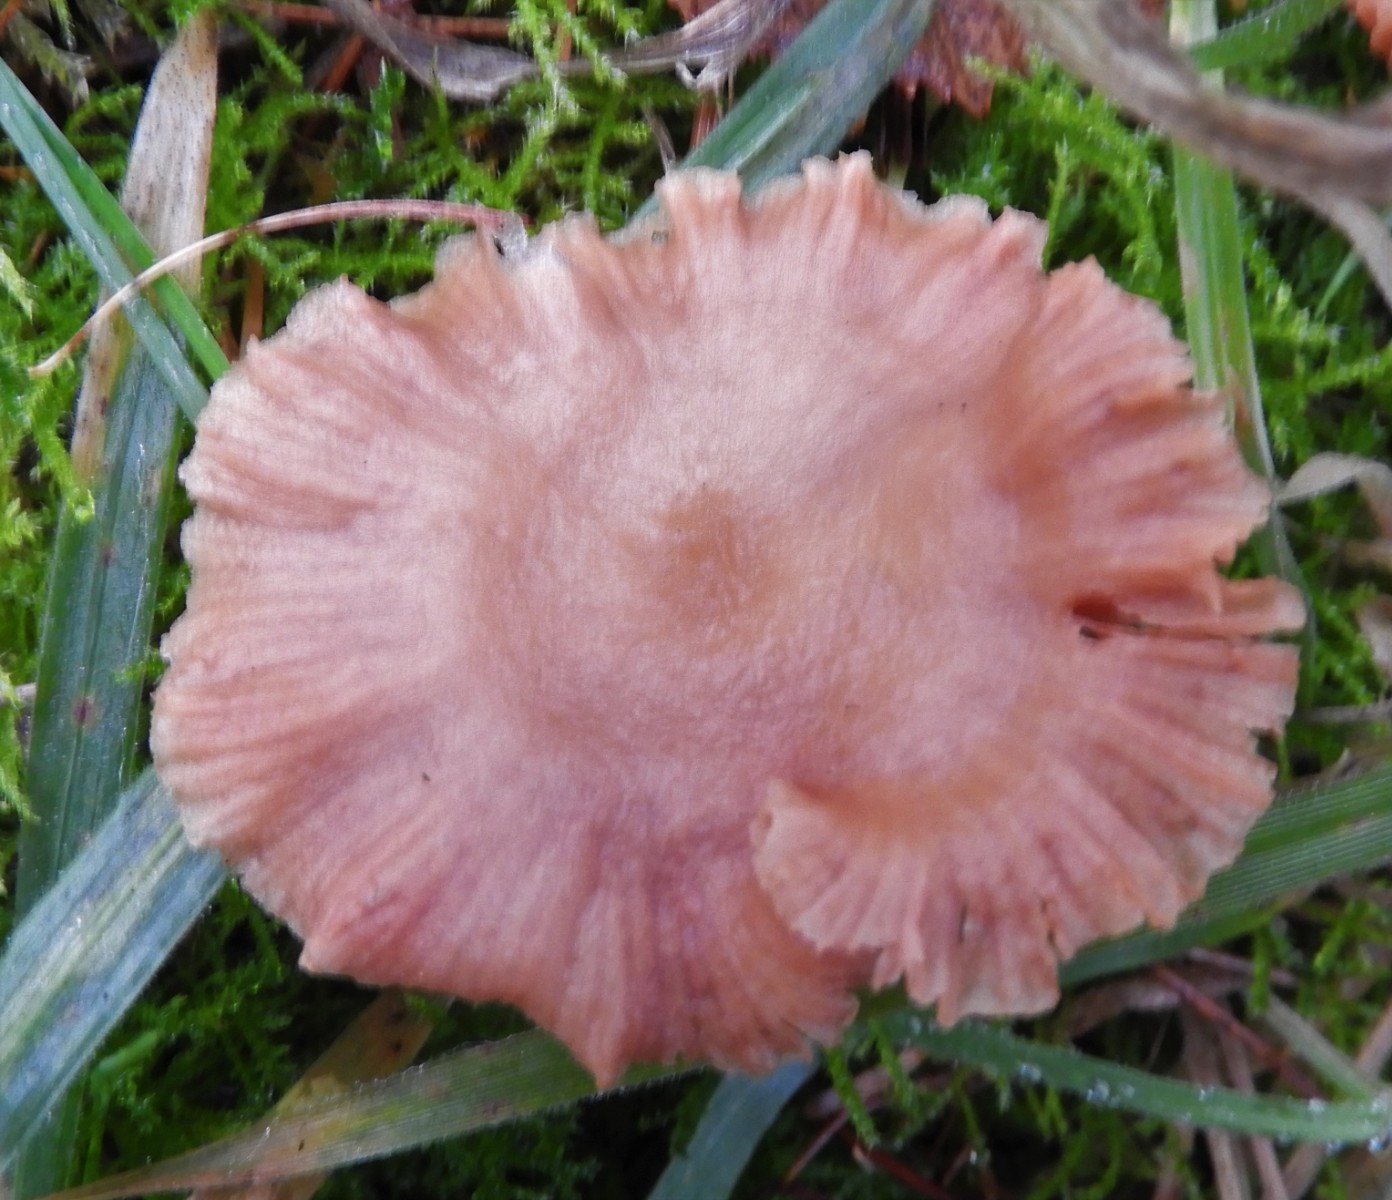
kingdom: Fungi
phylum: Basidiomycota
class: Agaricomycetes
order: Agaricales
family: Hydnangiaceae
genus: Laccaria
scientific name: Laccaria proxima
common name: stor ametysthat
